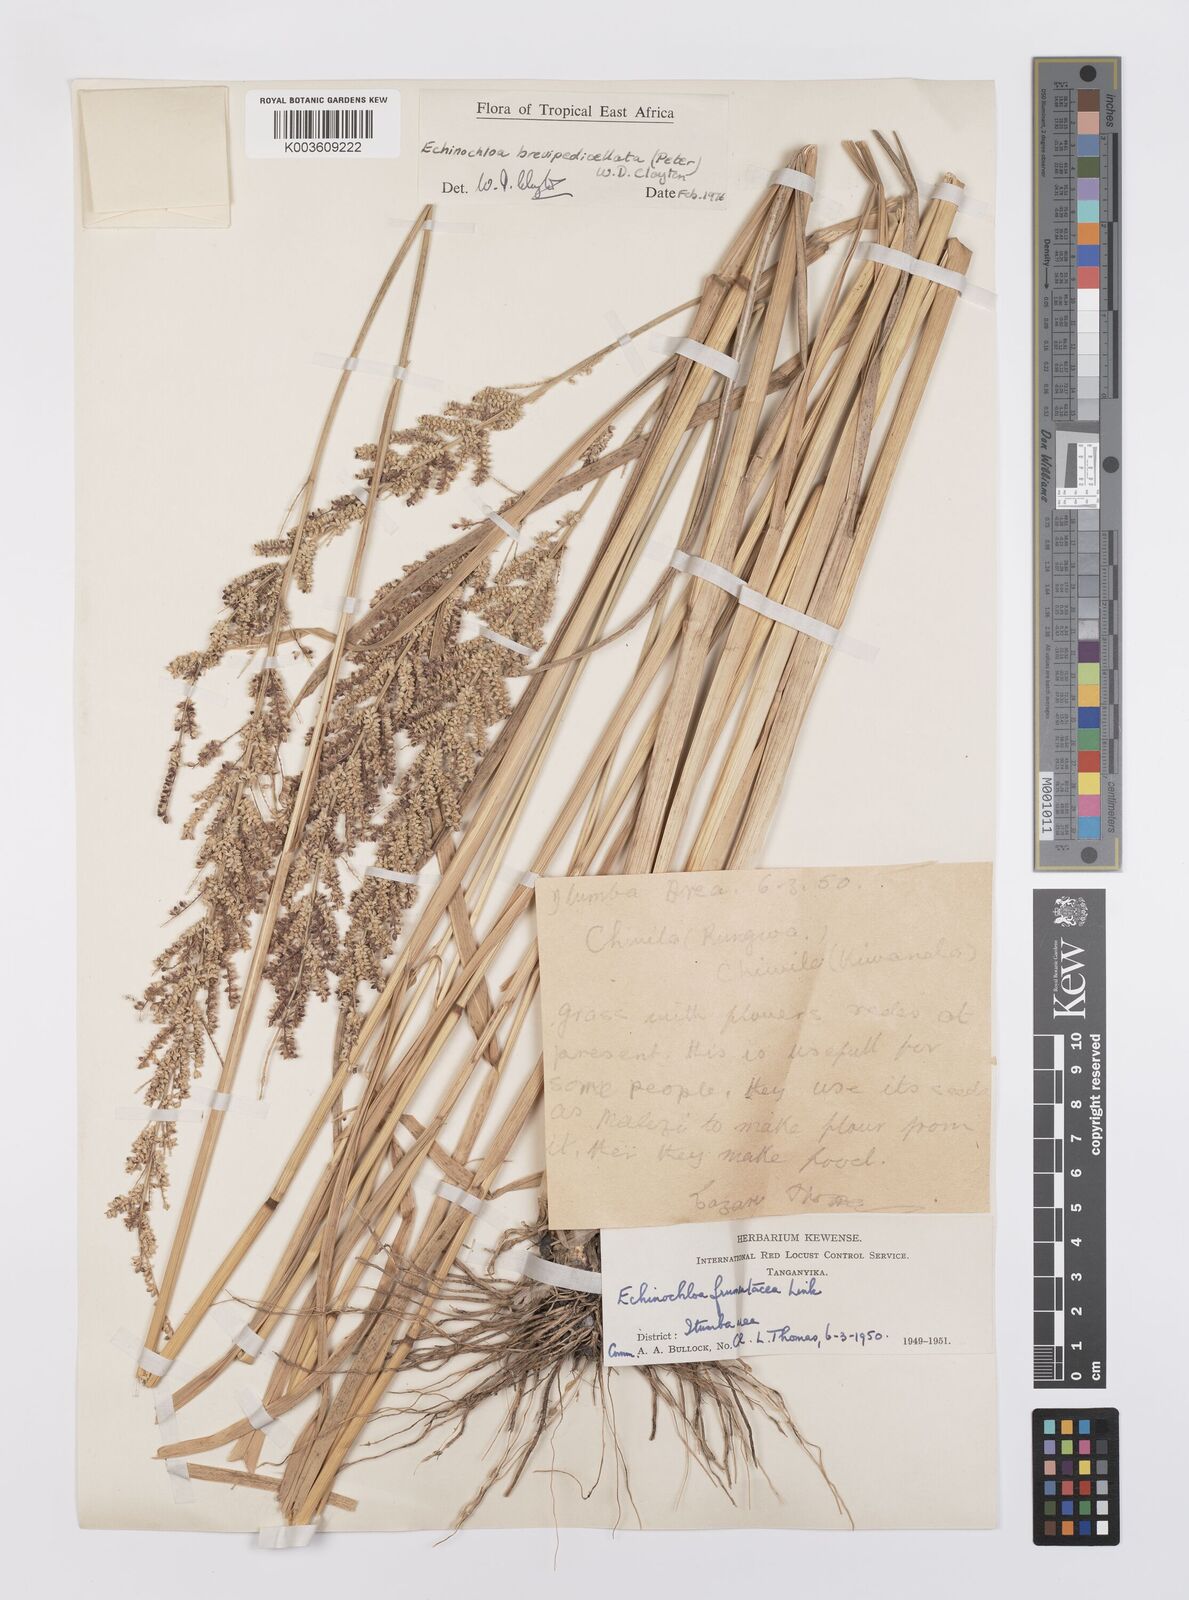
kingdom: Plantae
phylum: Tracheophyta
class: Liliopsida
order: Poales
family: Poaceae
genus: Echinochloa
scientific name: Echinochloa brevipedicellata
